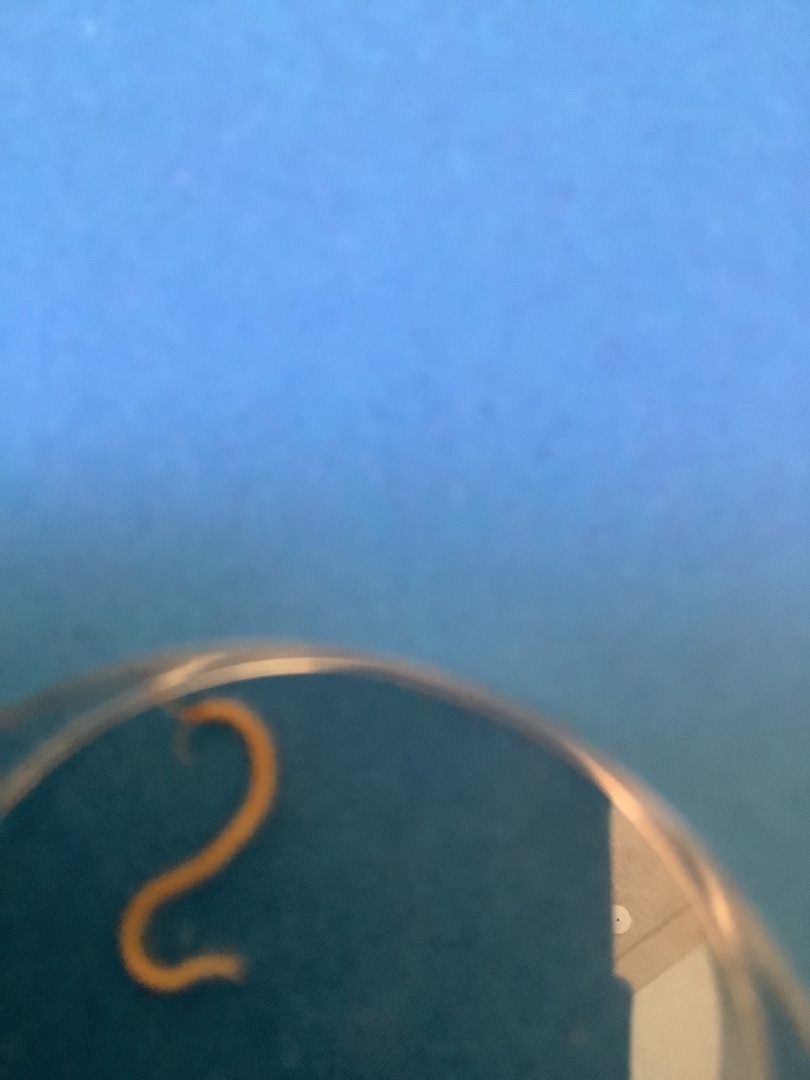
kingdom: Animalia
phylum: Arthropoda
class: Chilopoda
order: Geophilomorpha
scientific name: Geophilomorpha
